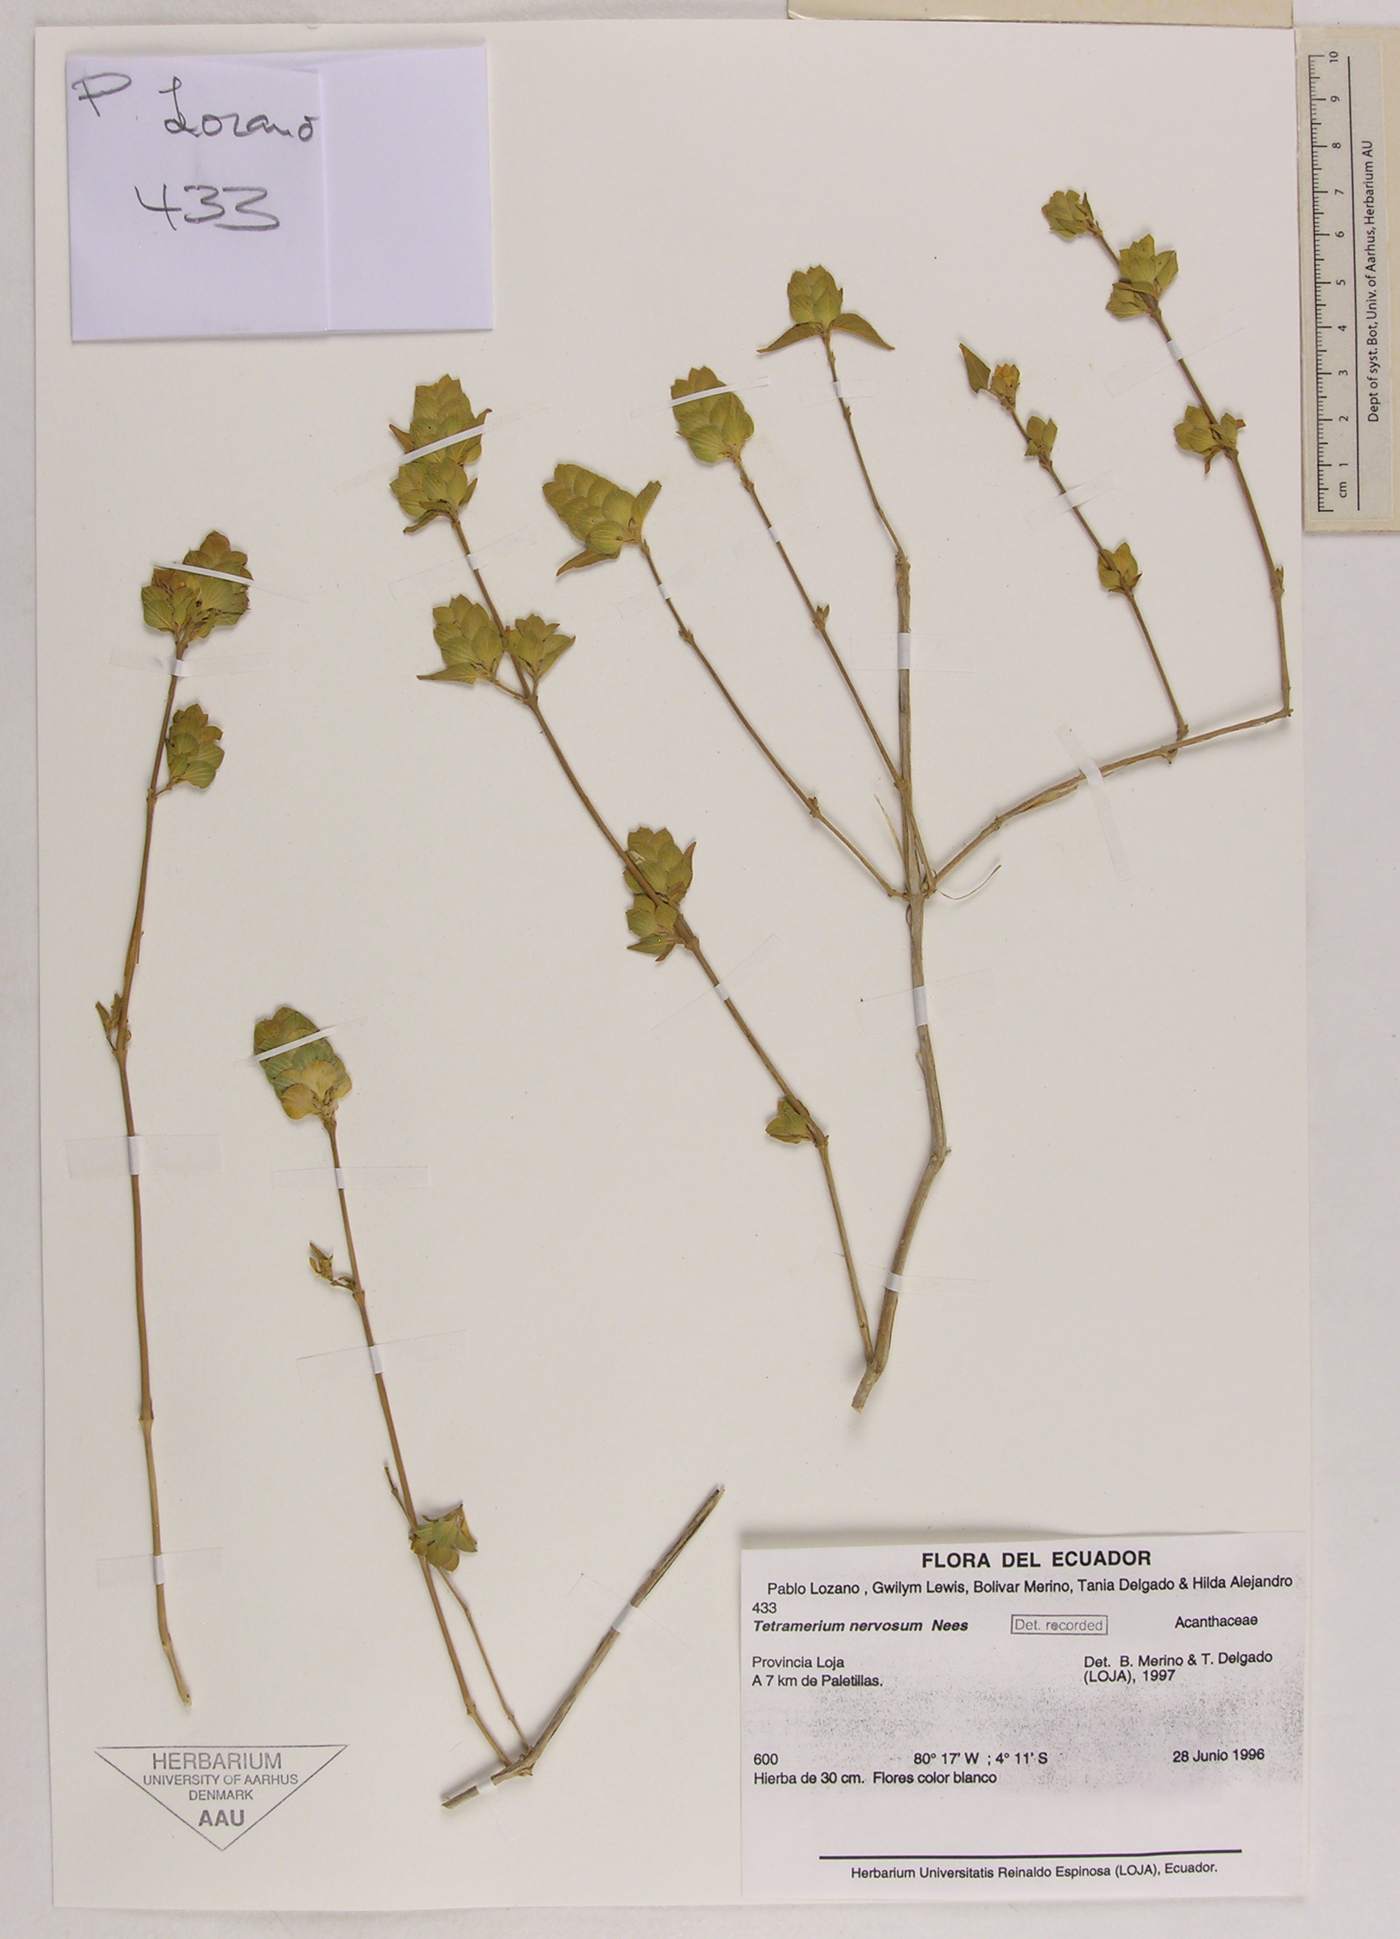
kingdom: Plantae
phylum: Tracheophyta
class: Magnoliopsida
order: Lamiales
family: Acanthaceae
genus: Tetramerium
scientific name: Tetramerium nervosum
